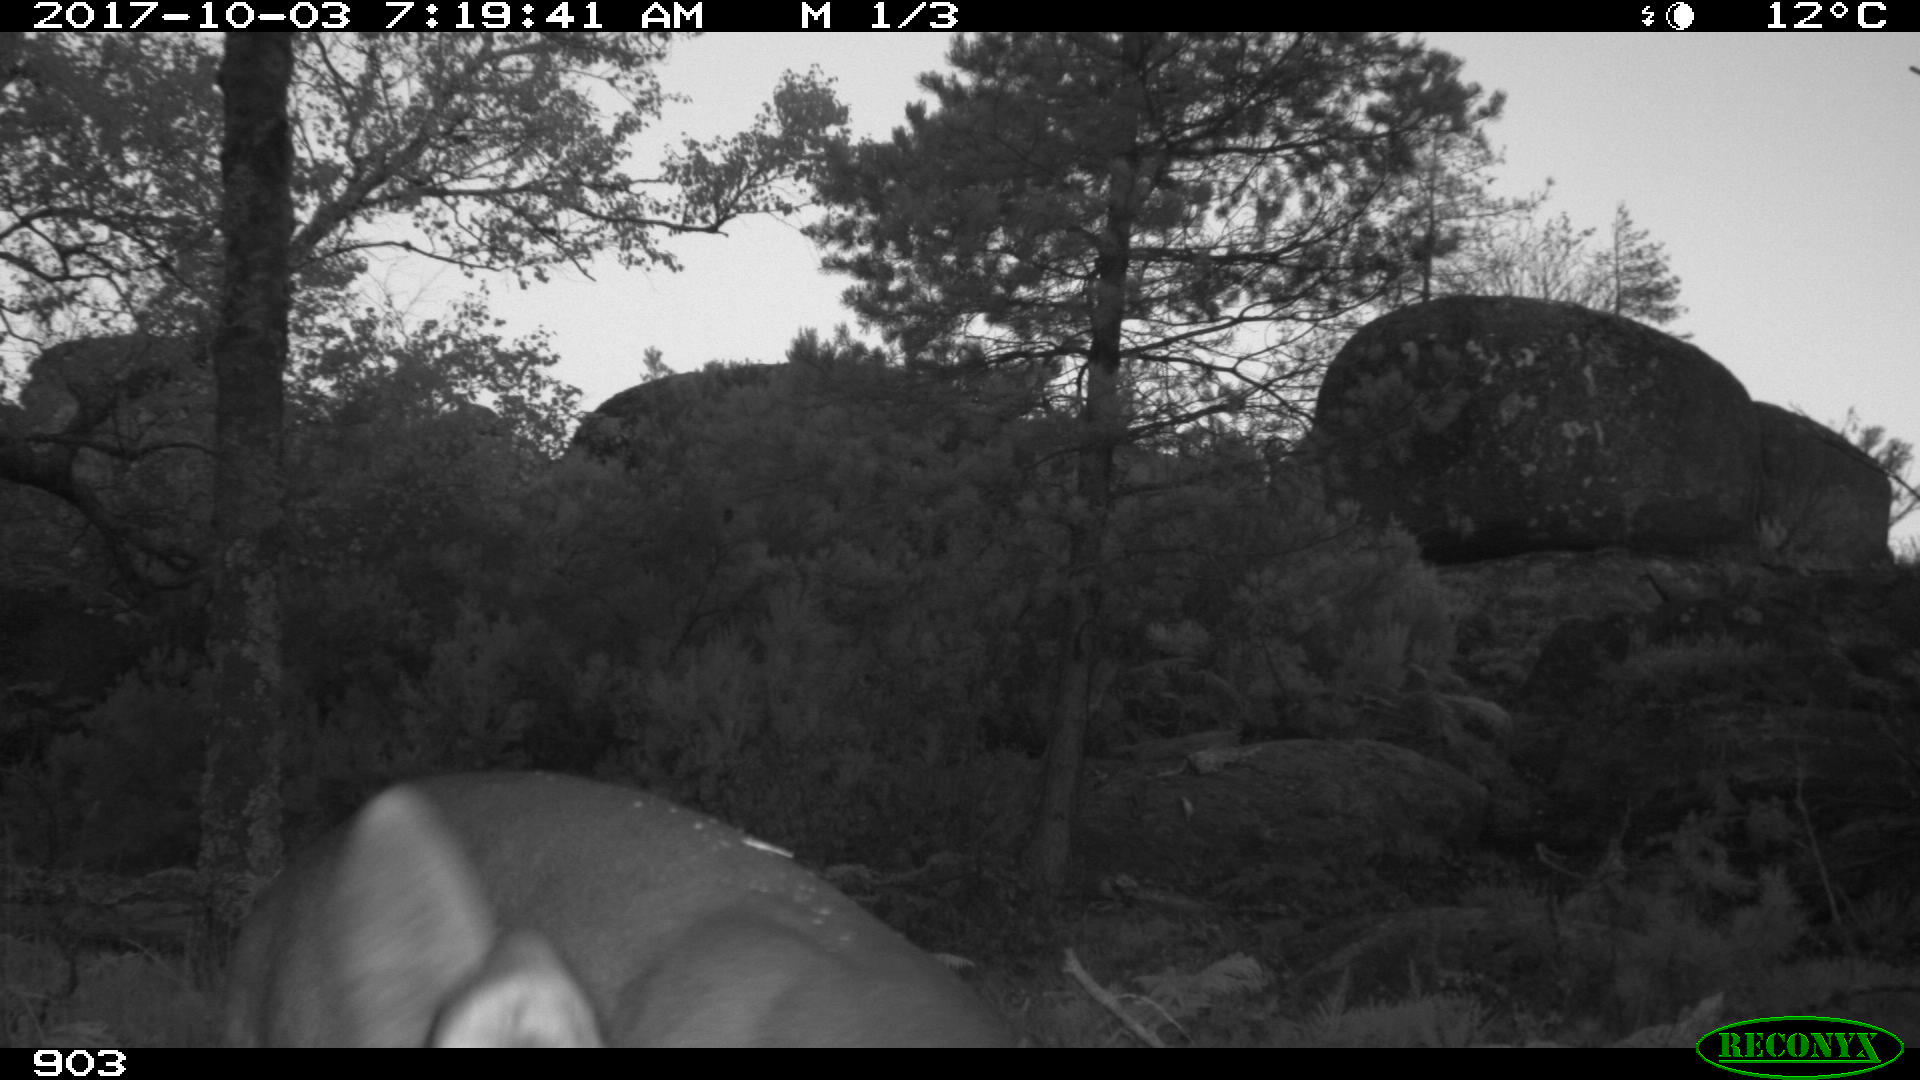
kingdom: Animalia
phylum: Chordata
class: Mammalia
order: Artiodactyla
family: Cervidae
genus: Capreolus
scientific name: Capreolus capreolus
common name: Western roe deer
